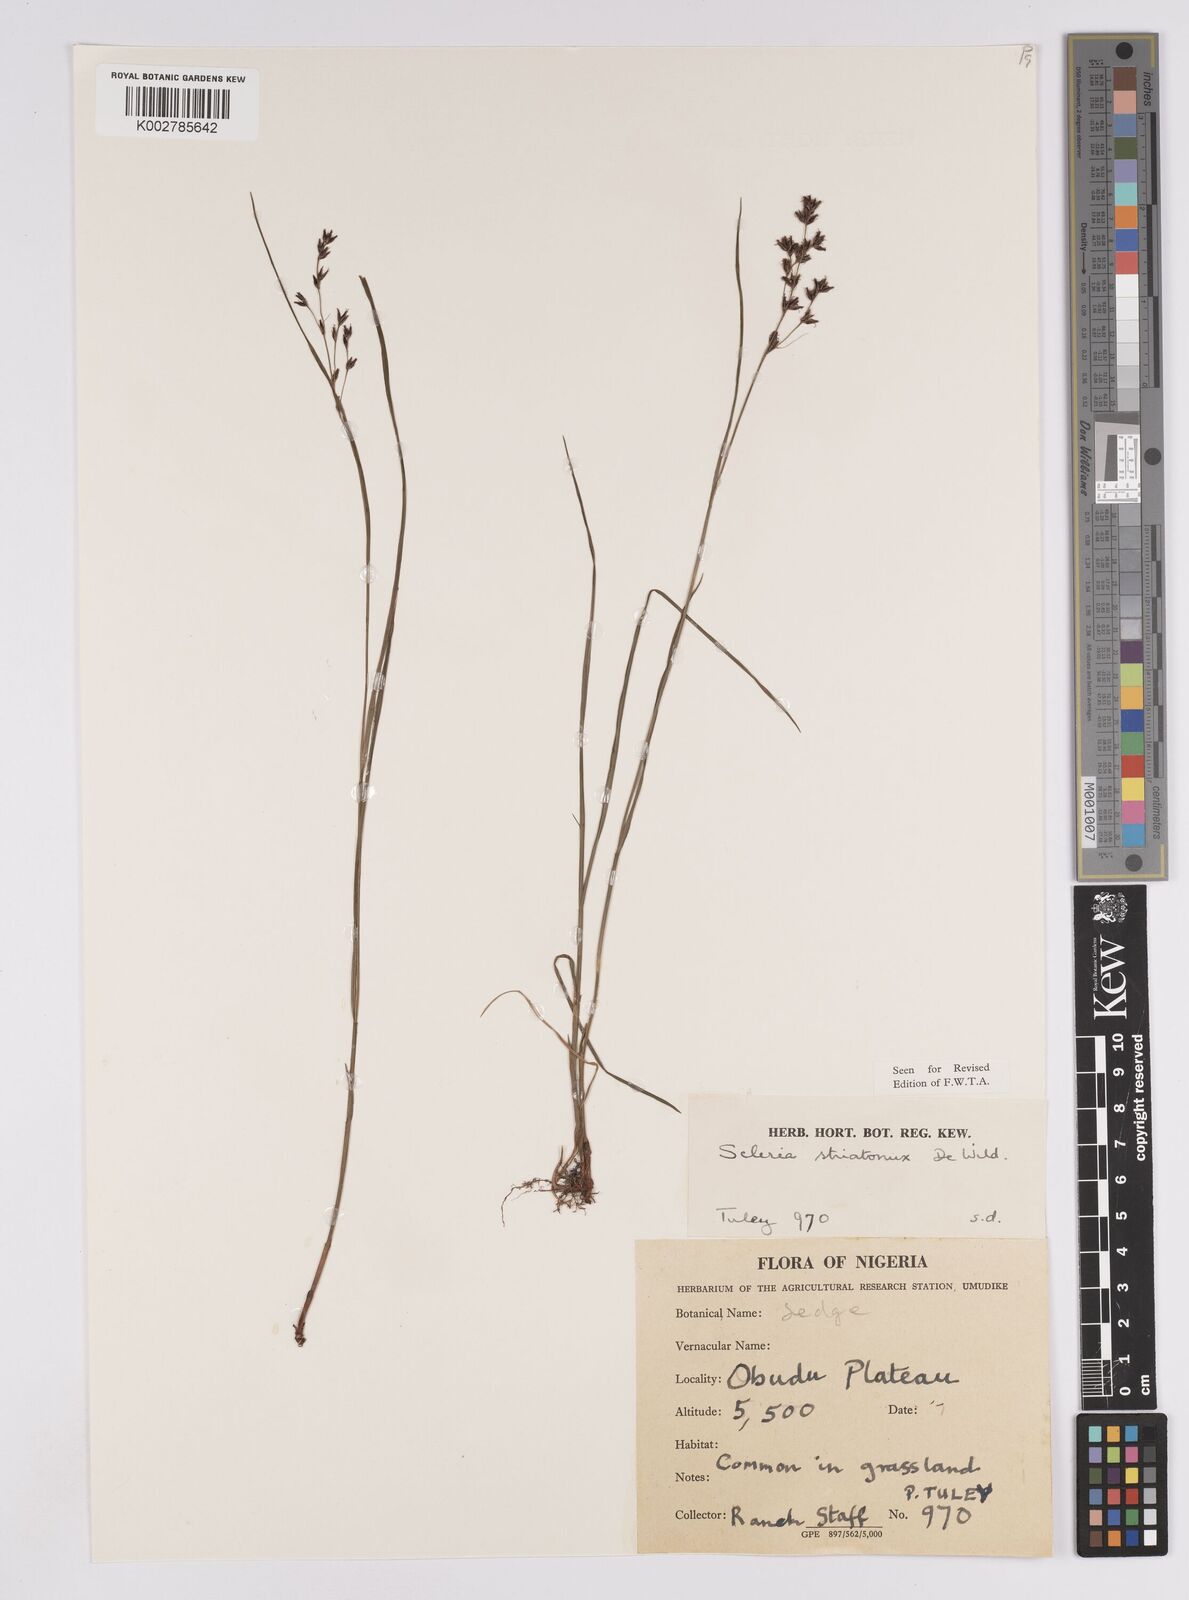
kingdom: Plantae
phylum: Tracheophyta
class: Liliopsida
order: Poales
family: Cyperaceae
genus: Scleria
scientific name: Scleria woodii
